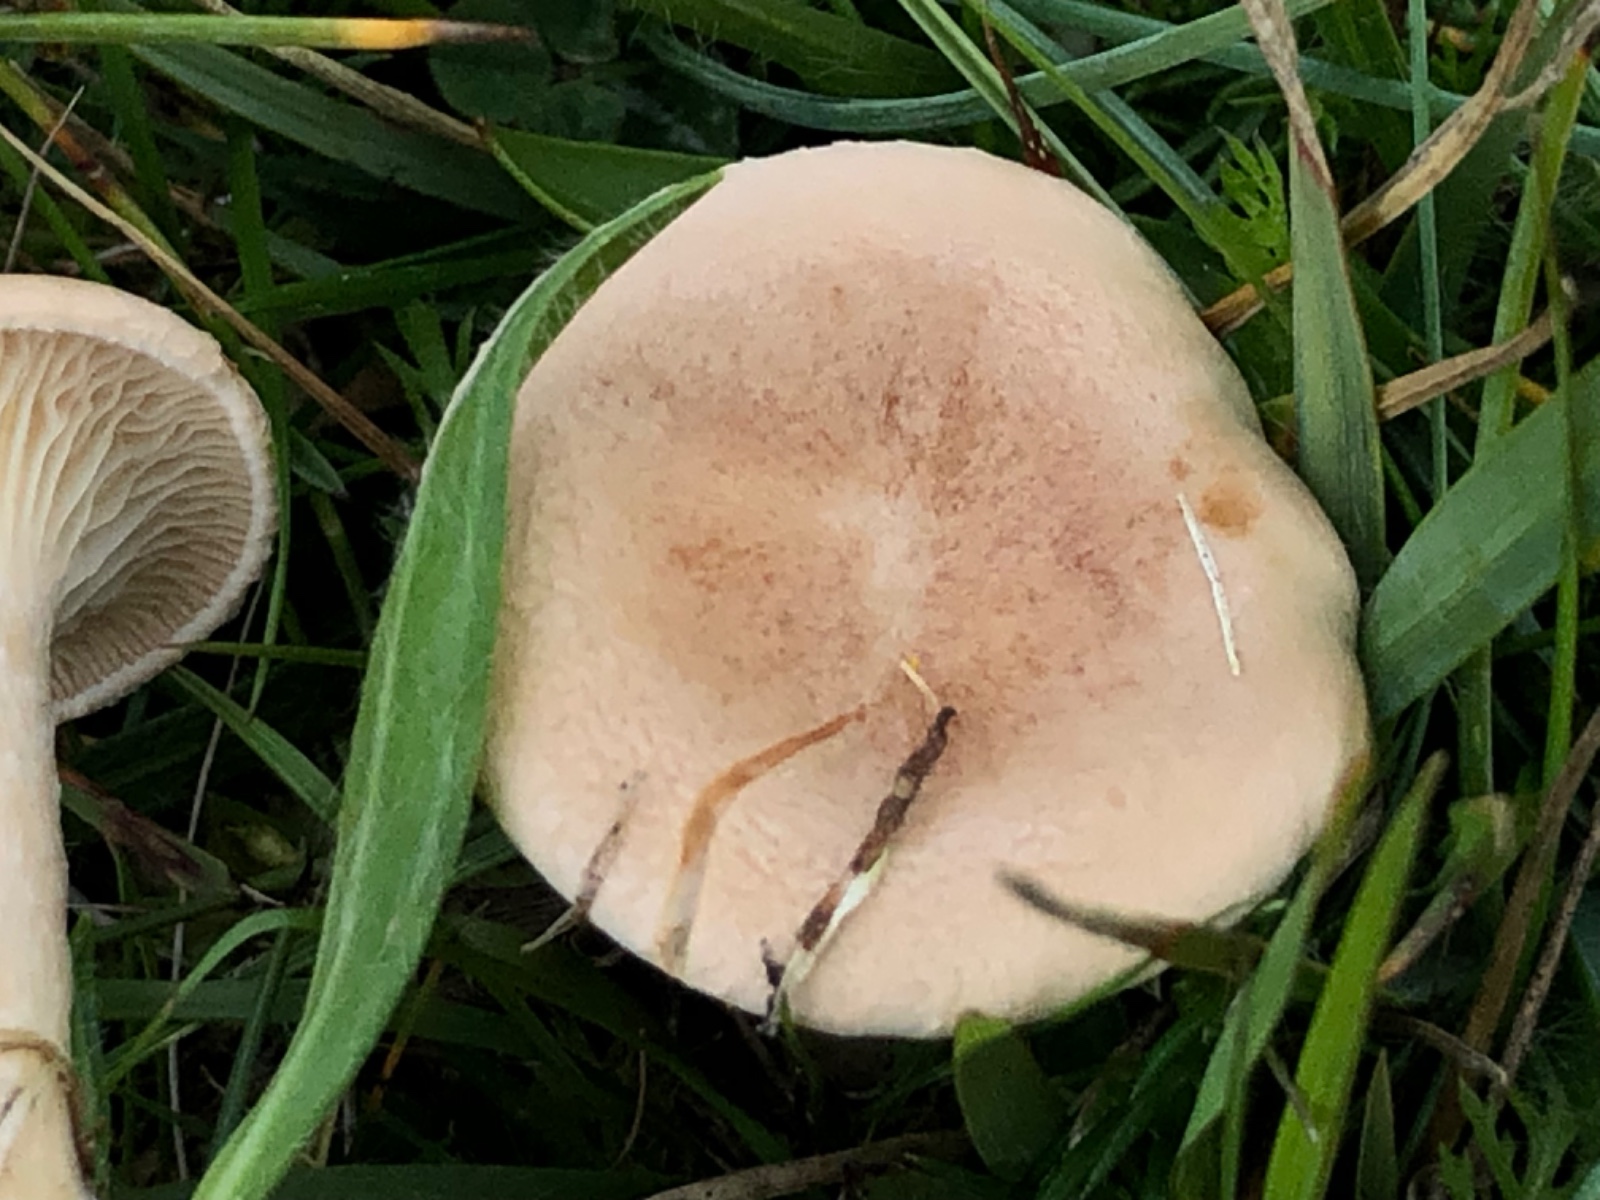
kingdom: Fungi
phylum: Basidiomycota
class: Agaricomycetes
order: Agaricales
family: Tricholomataceae
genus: Infundibulicybe
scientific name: Infundibulicybe
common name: tragthat
